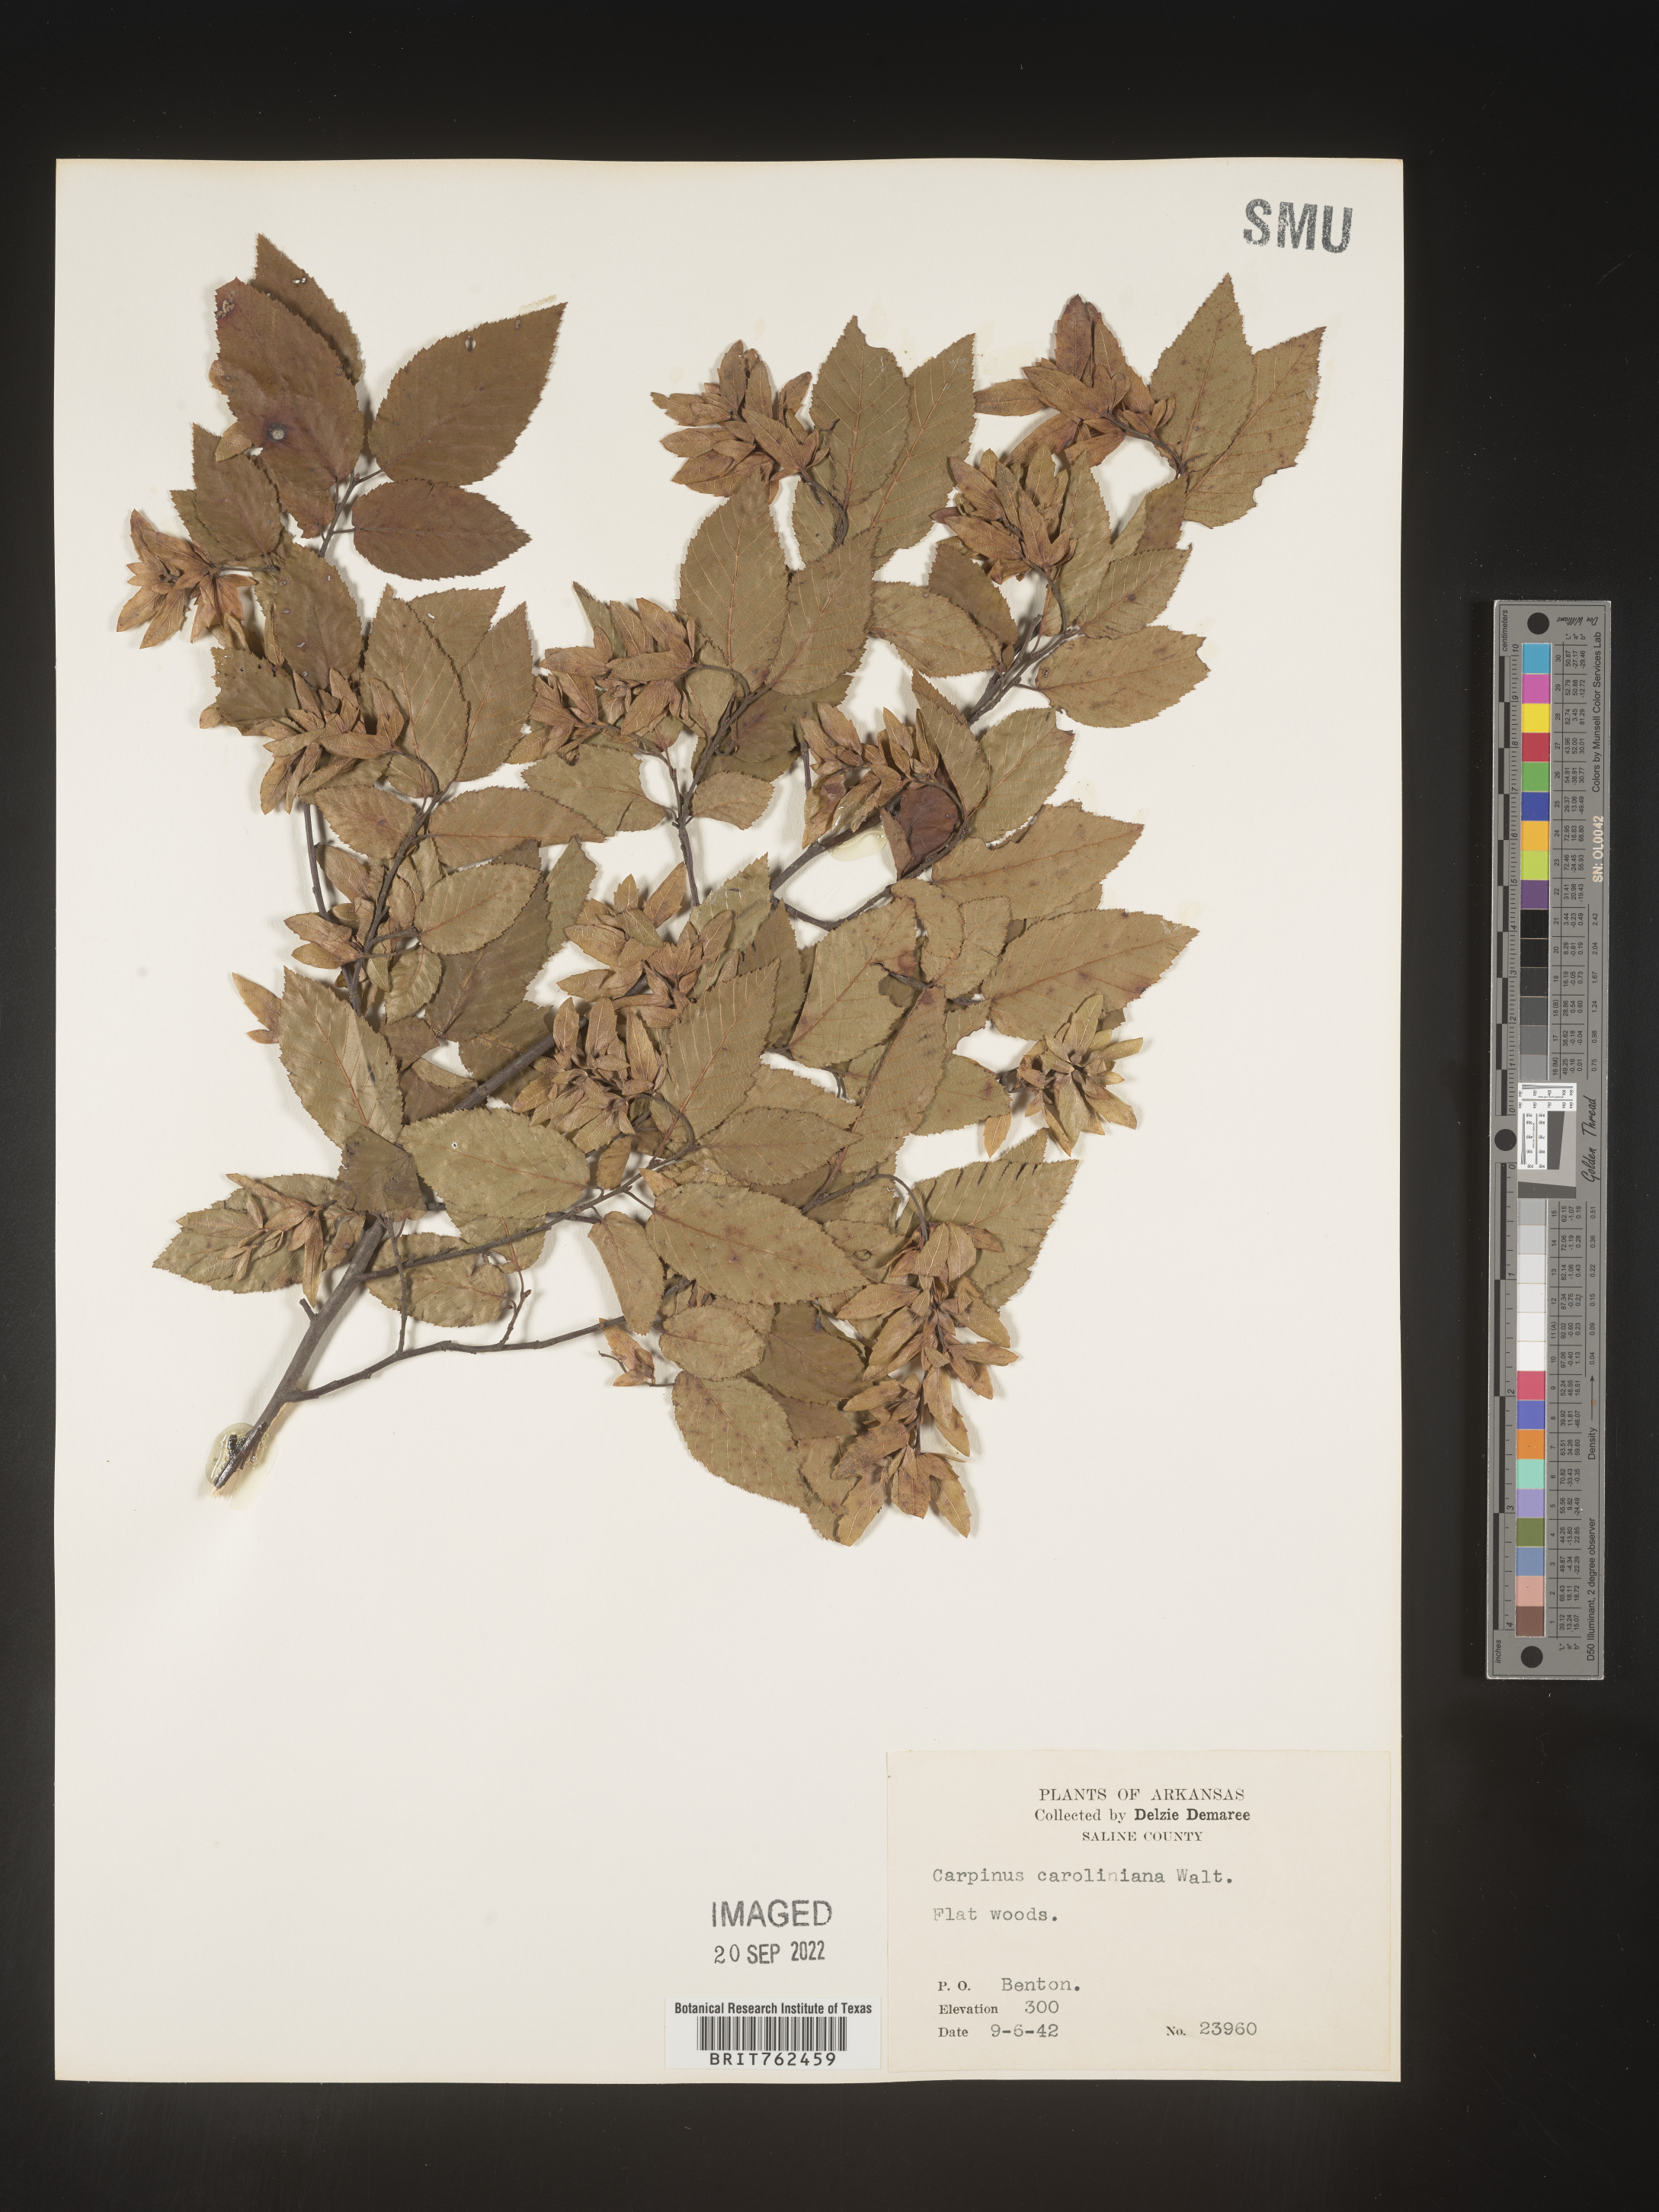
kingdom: Plantae
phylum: Tracheophyta
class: Magnoliopsida
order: Fagales
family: Betulaceae
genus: Carpinus
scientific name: Carpinus caroliniana
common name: American hornbeam
